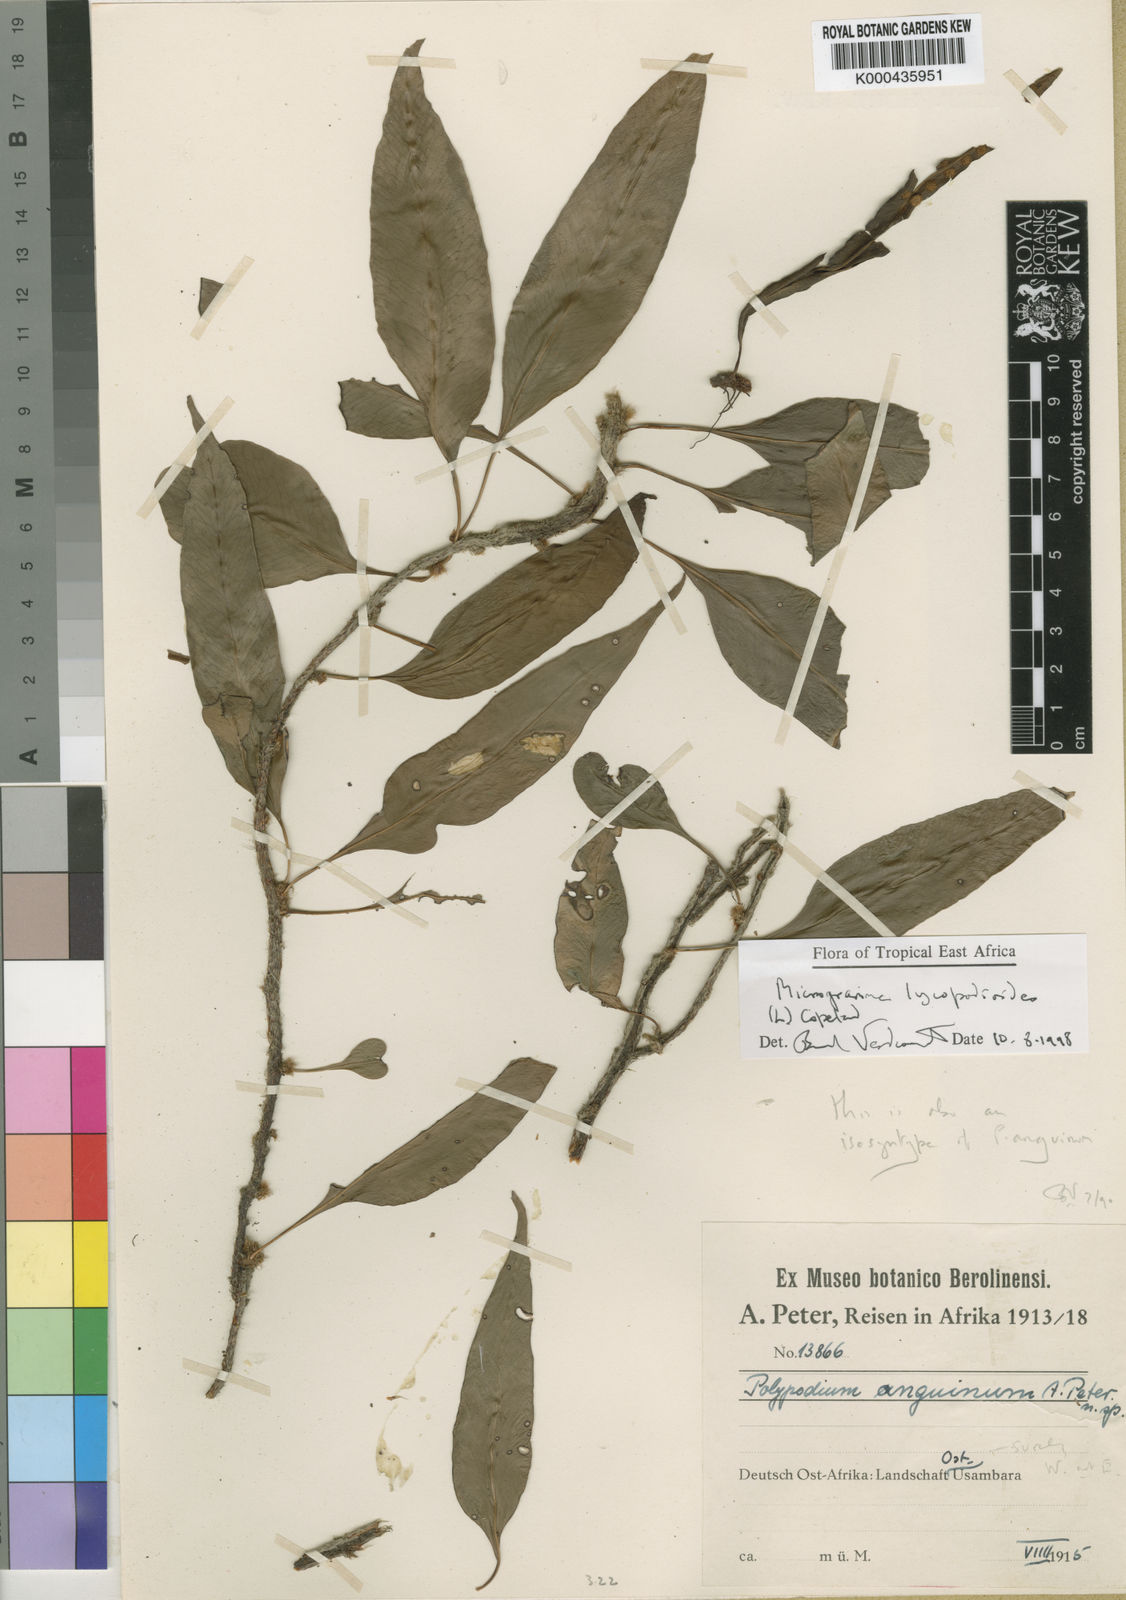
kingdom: Plantae
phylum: Tracheophyta
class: Polypodiopsida
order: Polypodiales
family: Polypodiaceae
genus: Microgramma
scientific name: Microgramma
